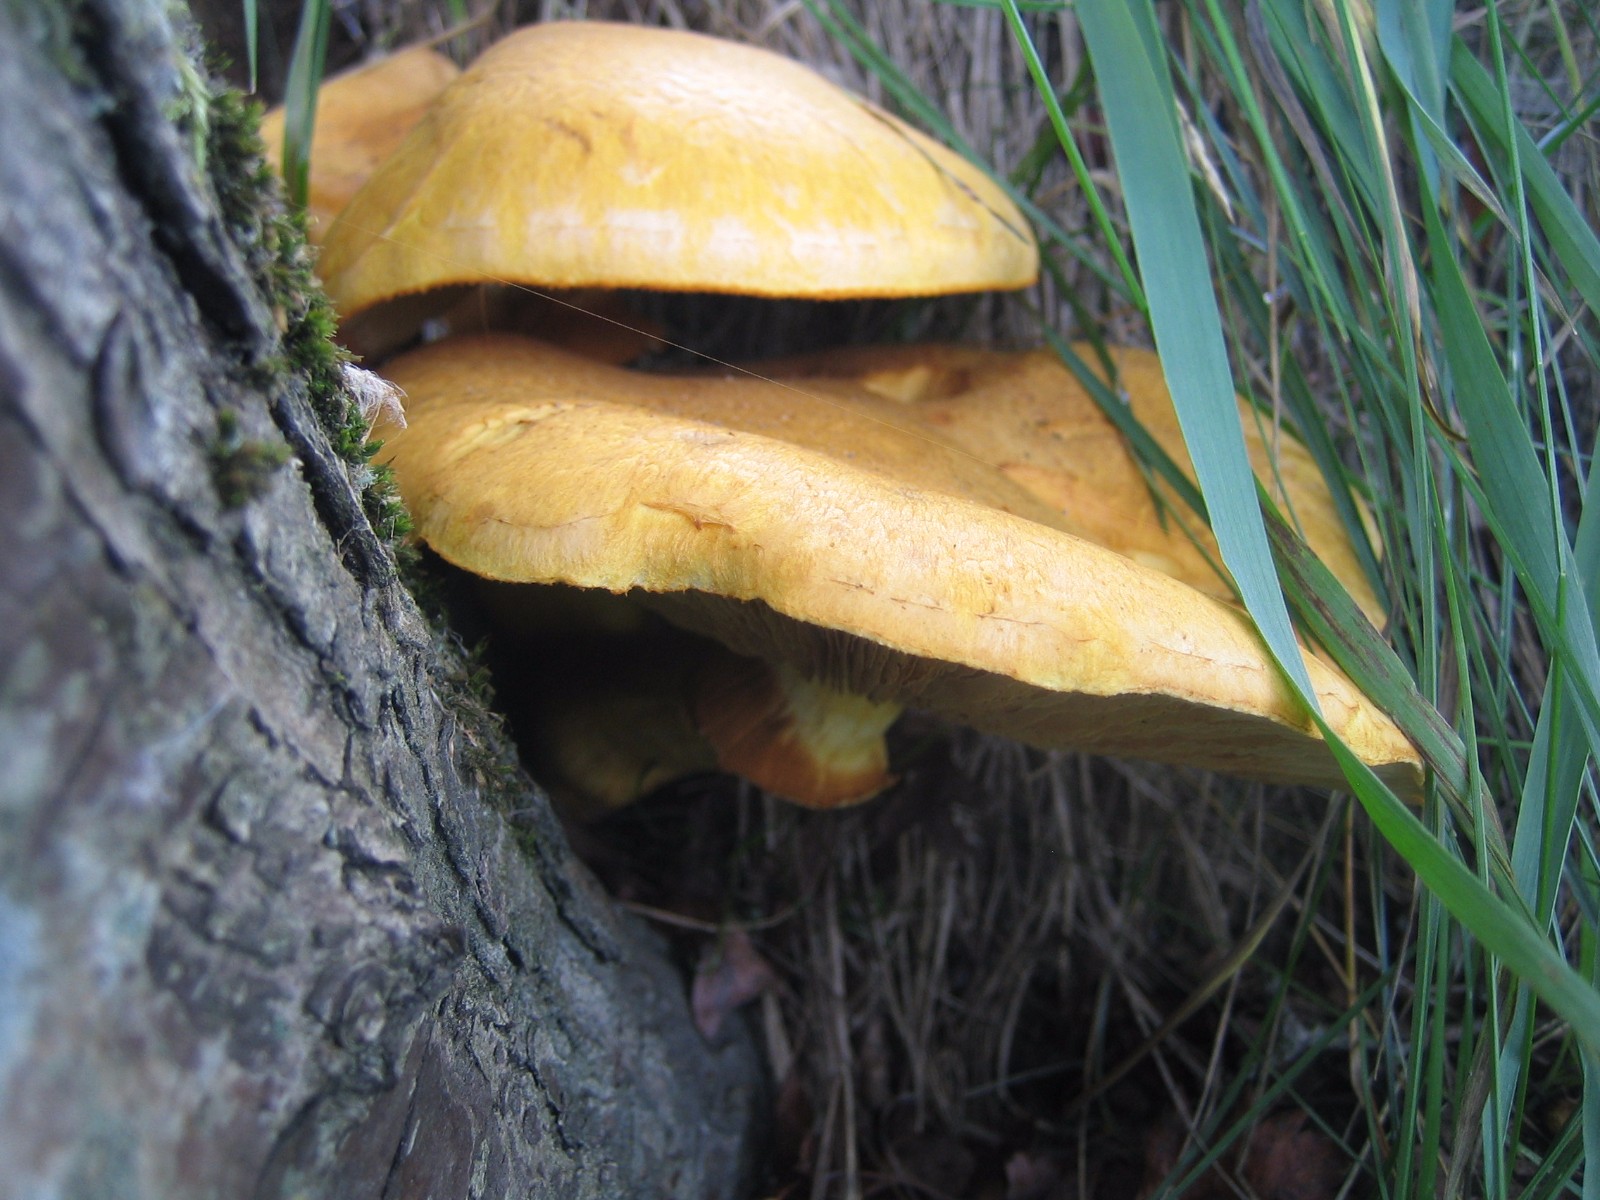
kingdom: Fungi
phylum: Basidiomycota
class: Agaricomycetes
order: Agaricales
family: Hymenogastraceae
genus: Gymnopilus
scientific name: Gymnopilus spectabilis
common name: fibret flammehat
